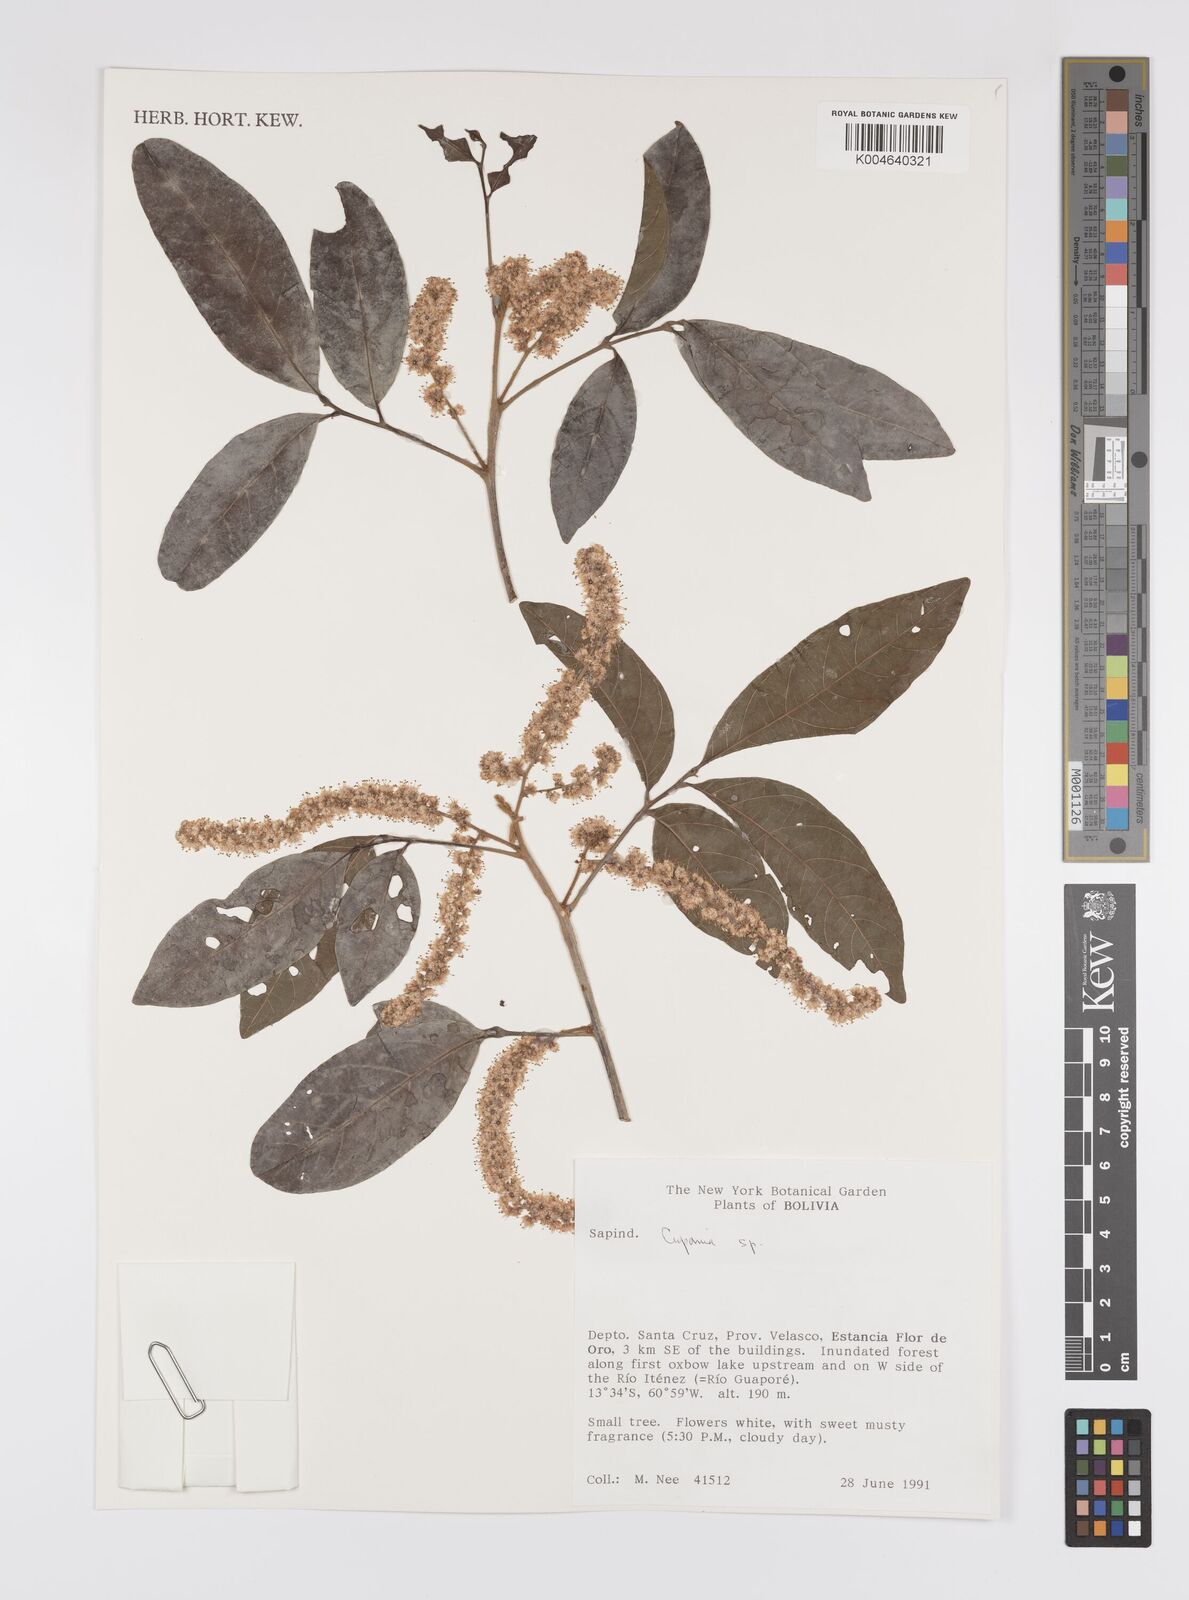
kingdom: Plantae
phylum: Tracheophyta
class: Magnoliopsida
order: Sapindales
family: Sapindaceae
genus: Cupania
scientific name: Cupania
